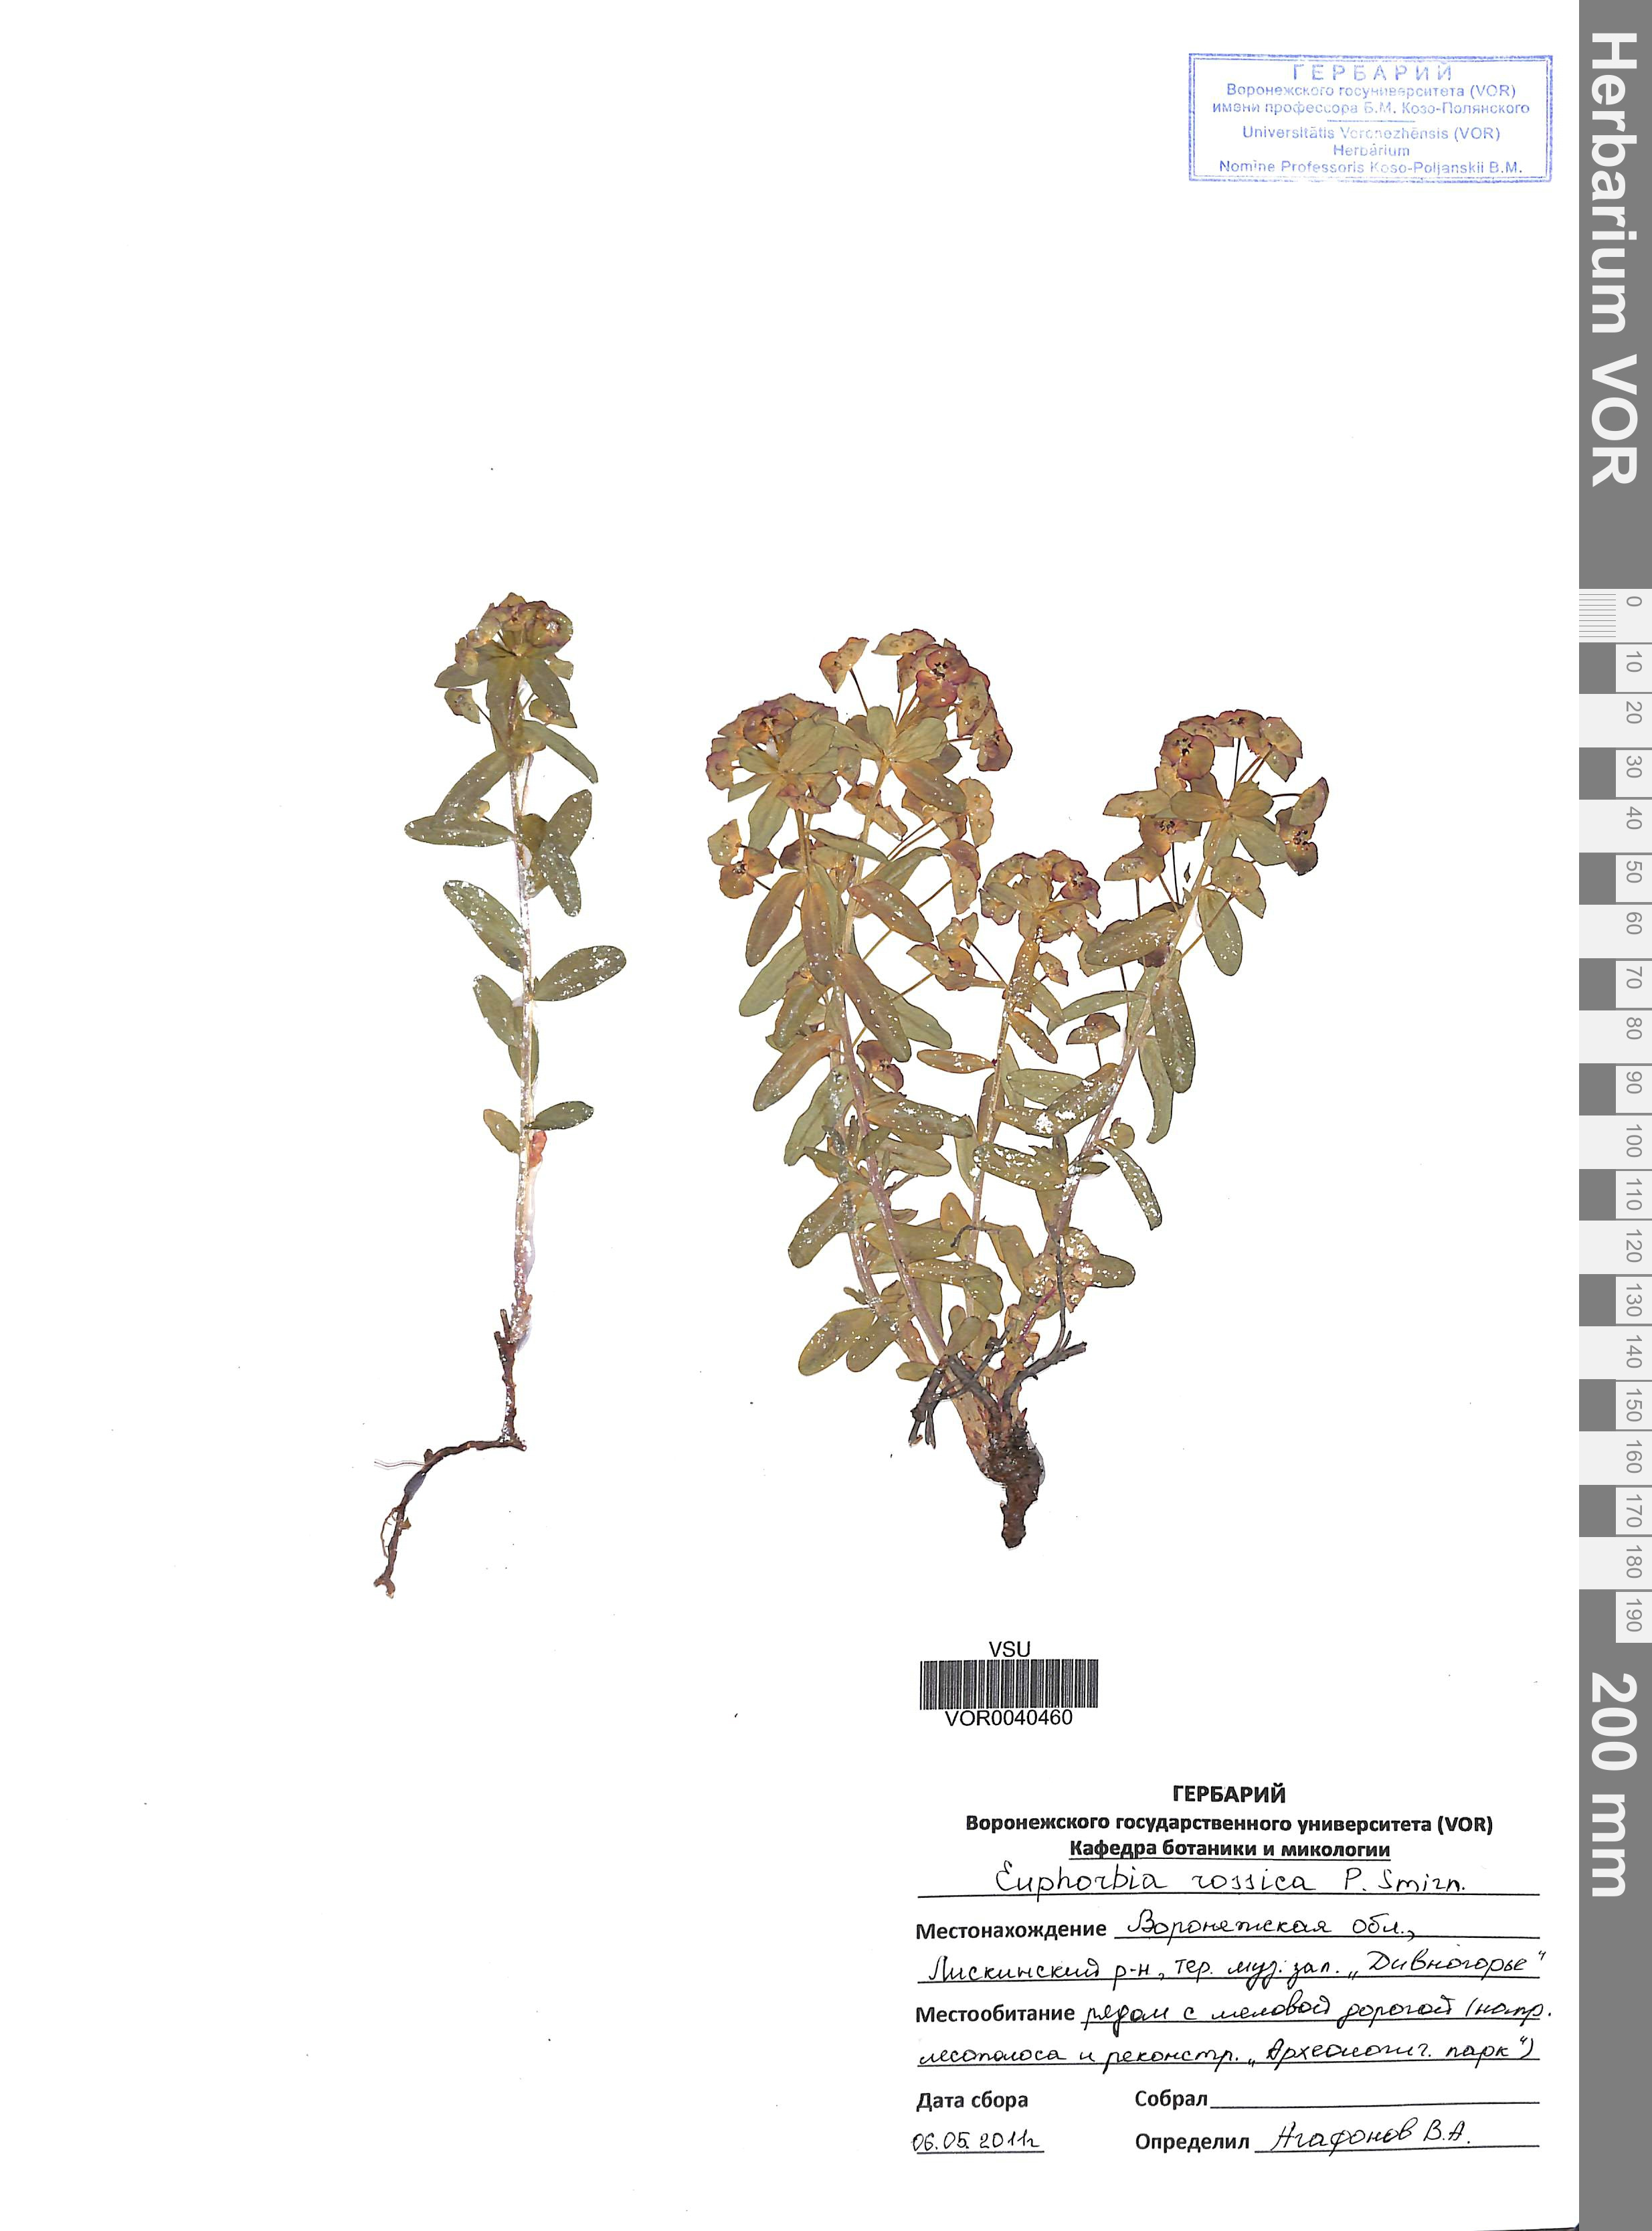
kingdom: Plantae
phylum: Tracheophyta
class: Magnoliopsida
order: Malpighiales
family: Euphorbiaceae
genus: Euphorbia
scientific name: Euphorbia esula
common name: Leafy spurge
